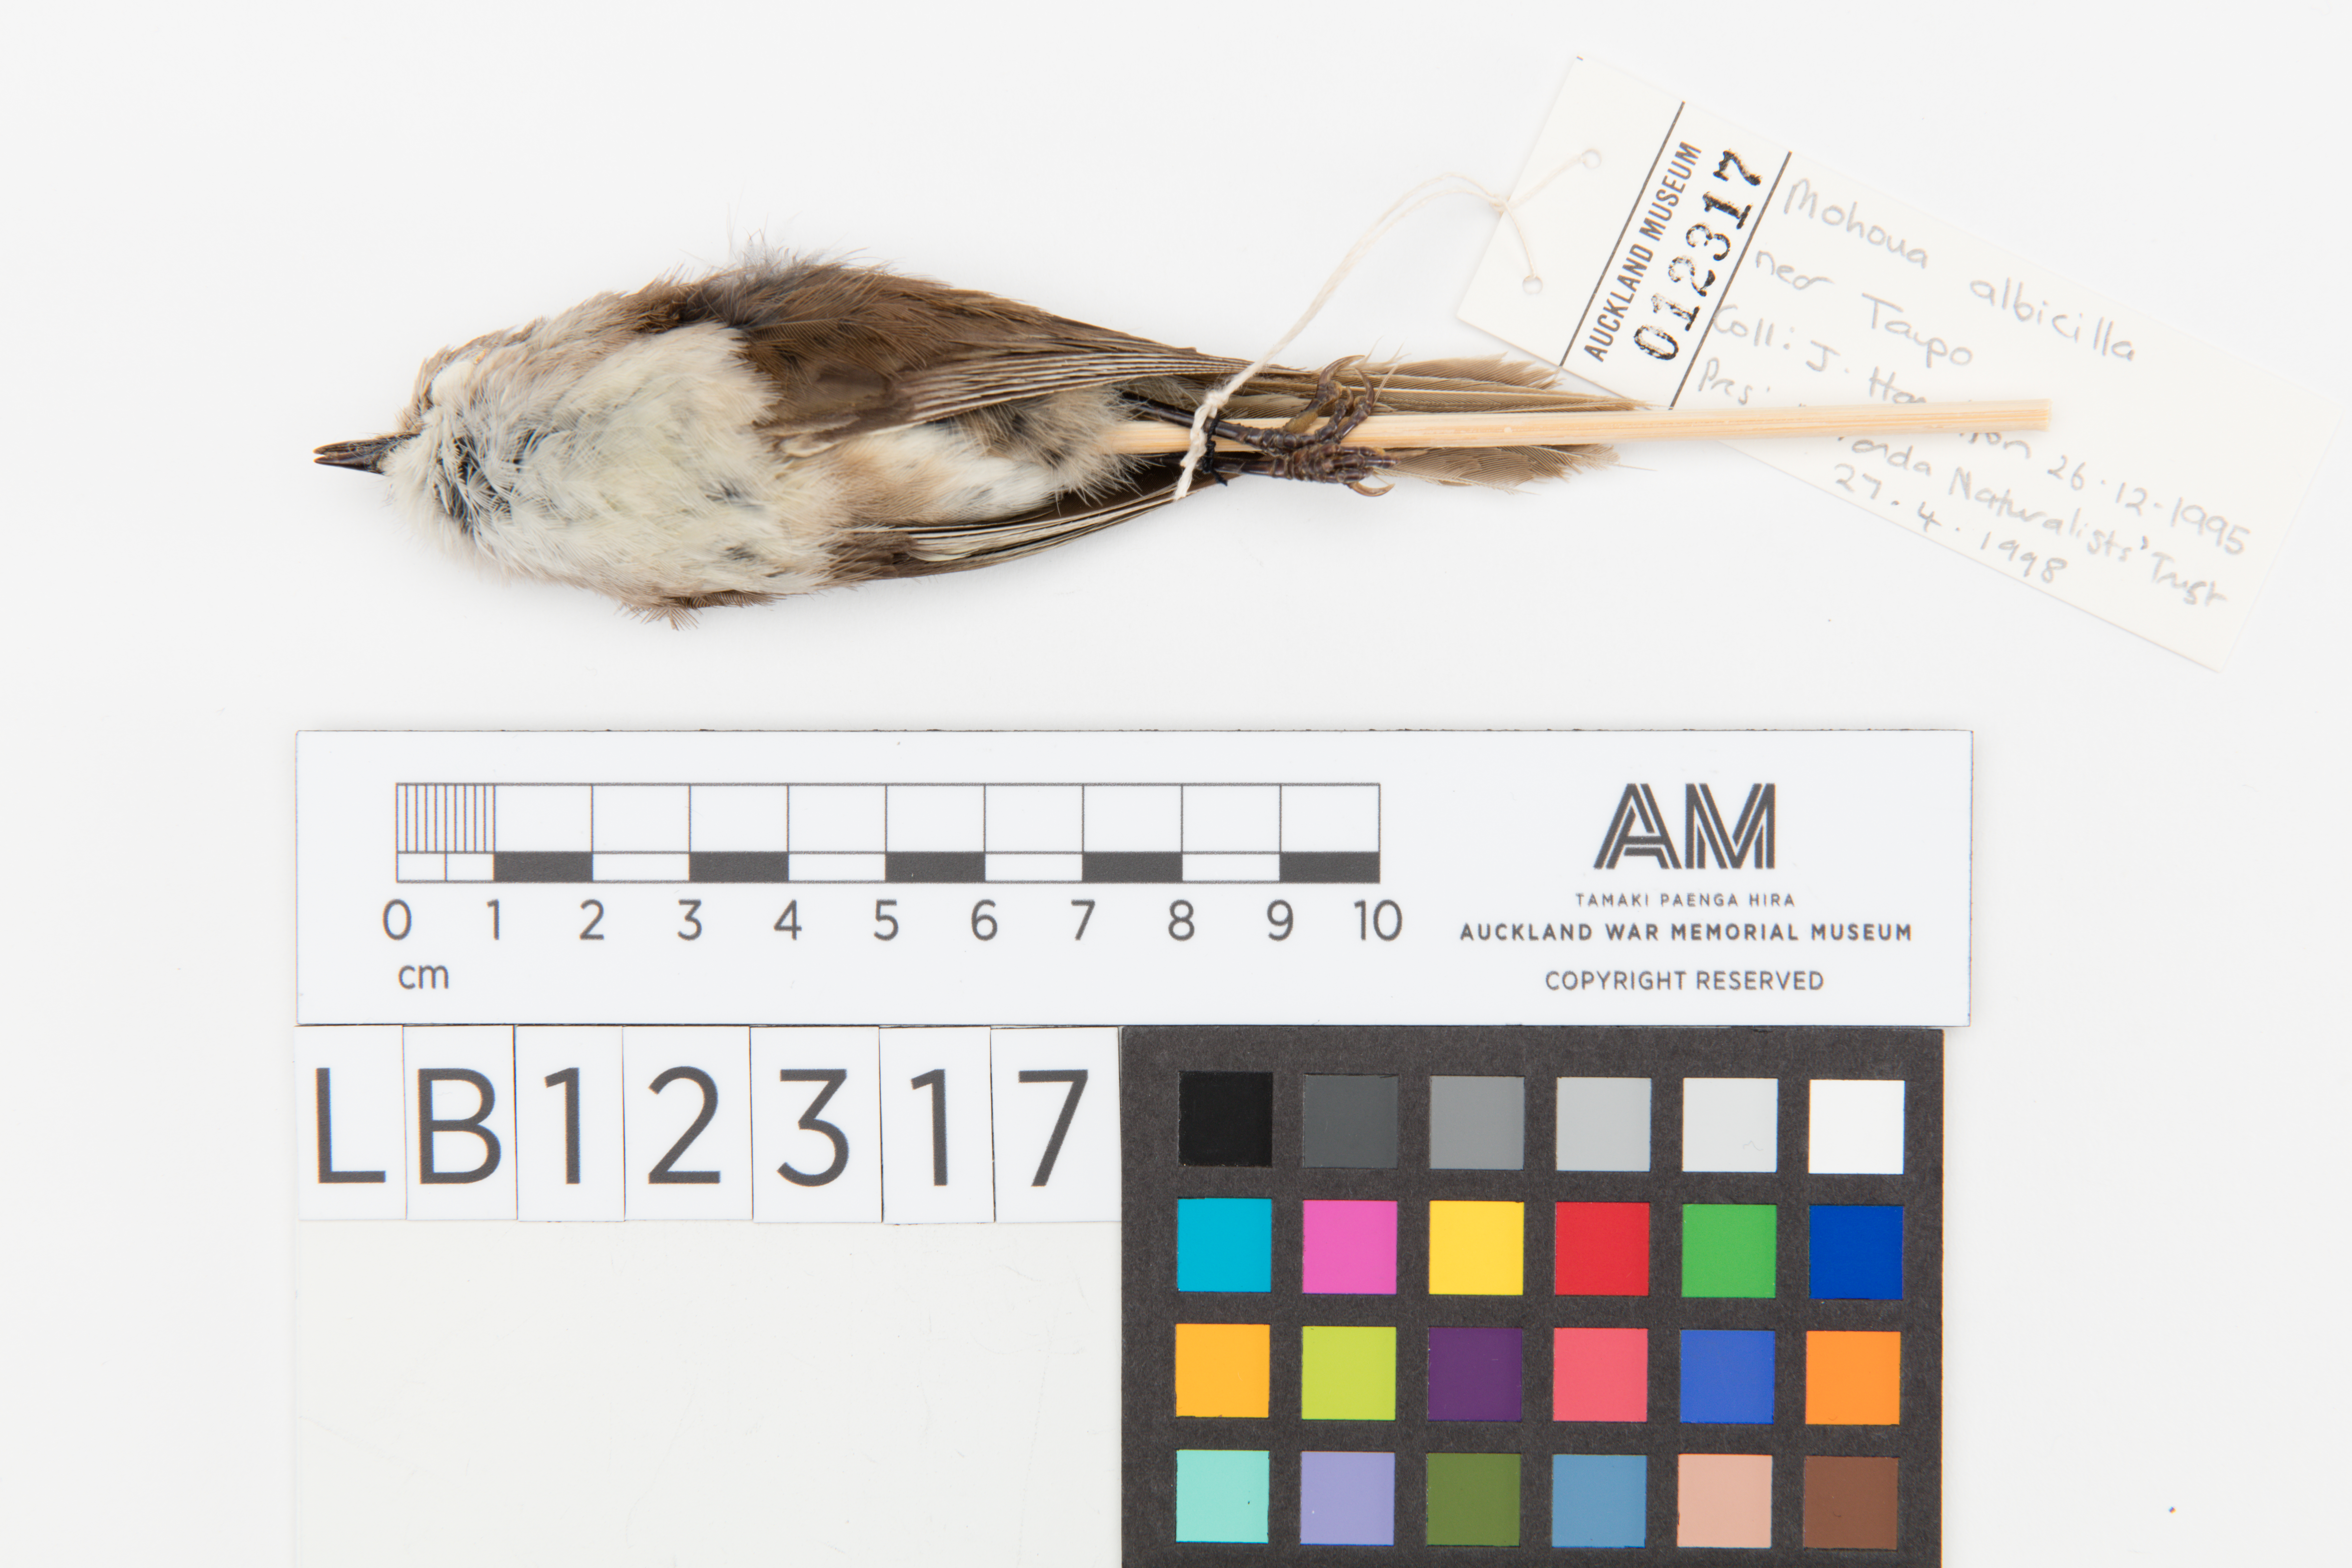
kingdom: Animalia
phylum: Chordata
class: Aves
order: Passeriformes
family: Acanthizidae
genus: Mohoua
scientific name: Mohoua albicilla
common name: Whitehead
